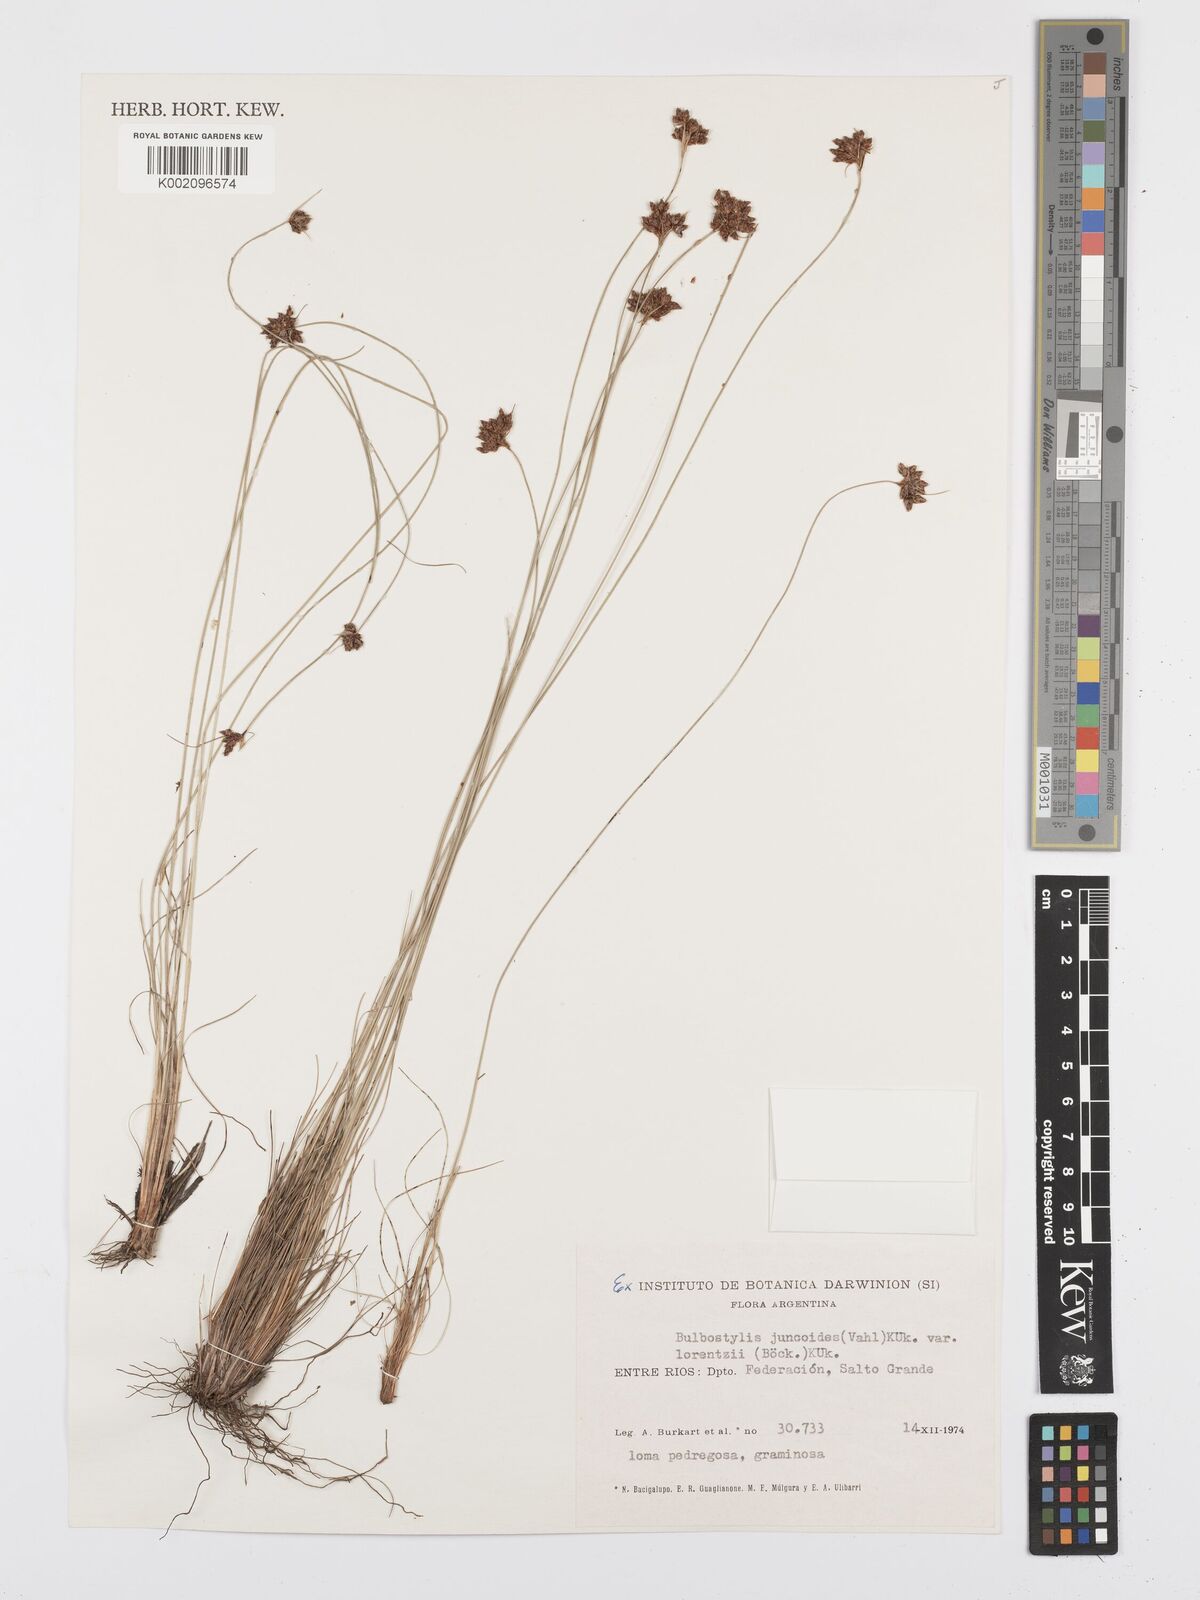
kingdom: Plantae
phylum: Tracheophyta
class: Liliopsida
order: Poales
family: Cyperaceae
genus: Bulbostylis
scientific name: Bulbostylis
